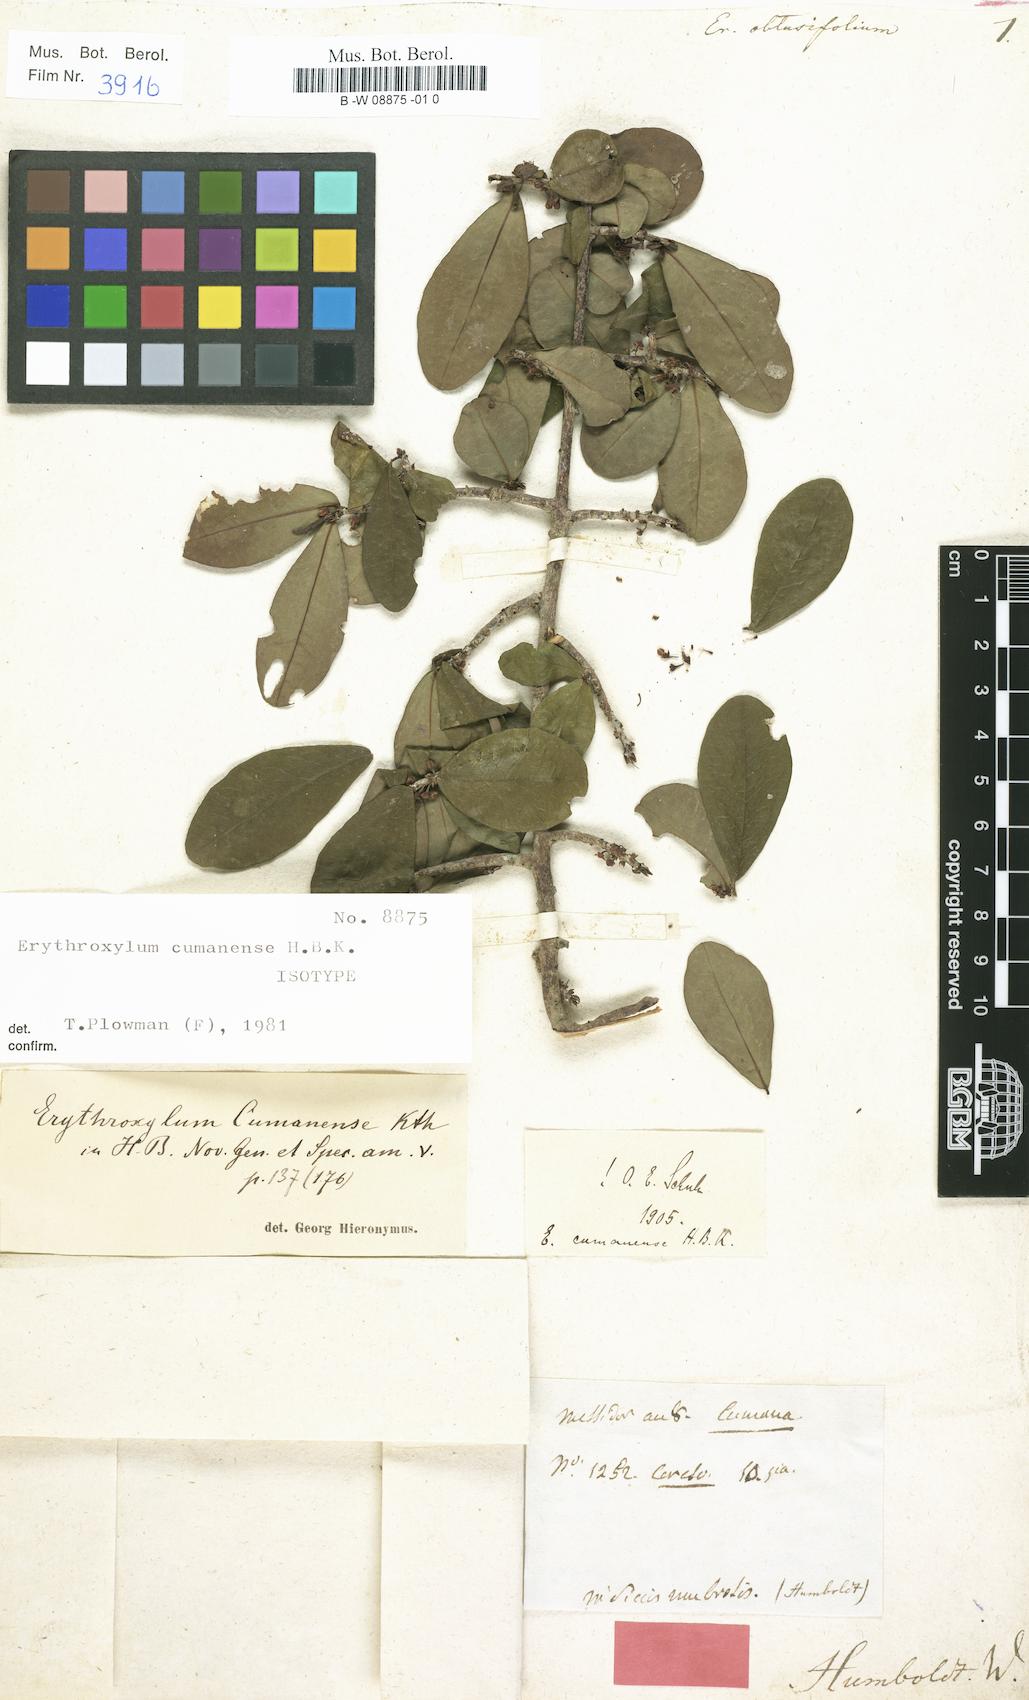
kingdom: Plantae
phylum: Tracheophyta
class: Magnoliopsida
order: Malpighiales
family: Erythroxylaceae
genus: Erythroxylum
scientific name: Erythroxylum obtusifolium
